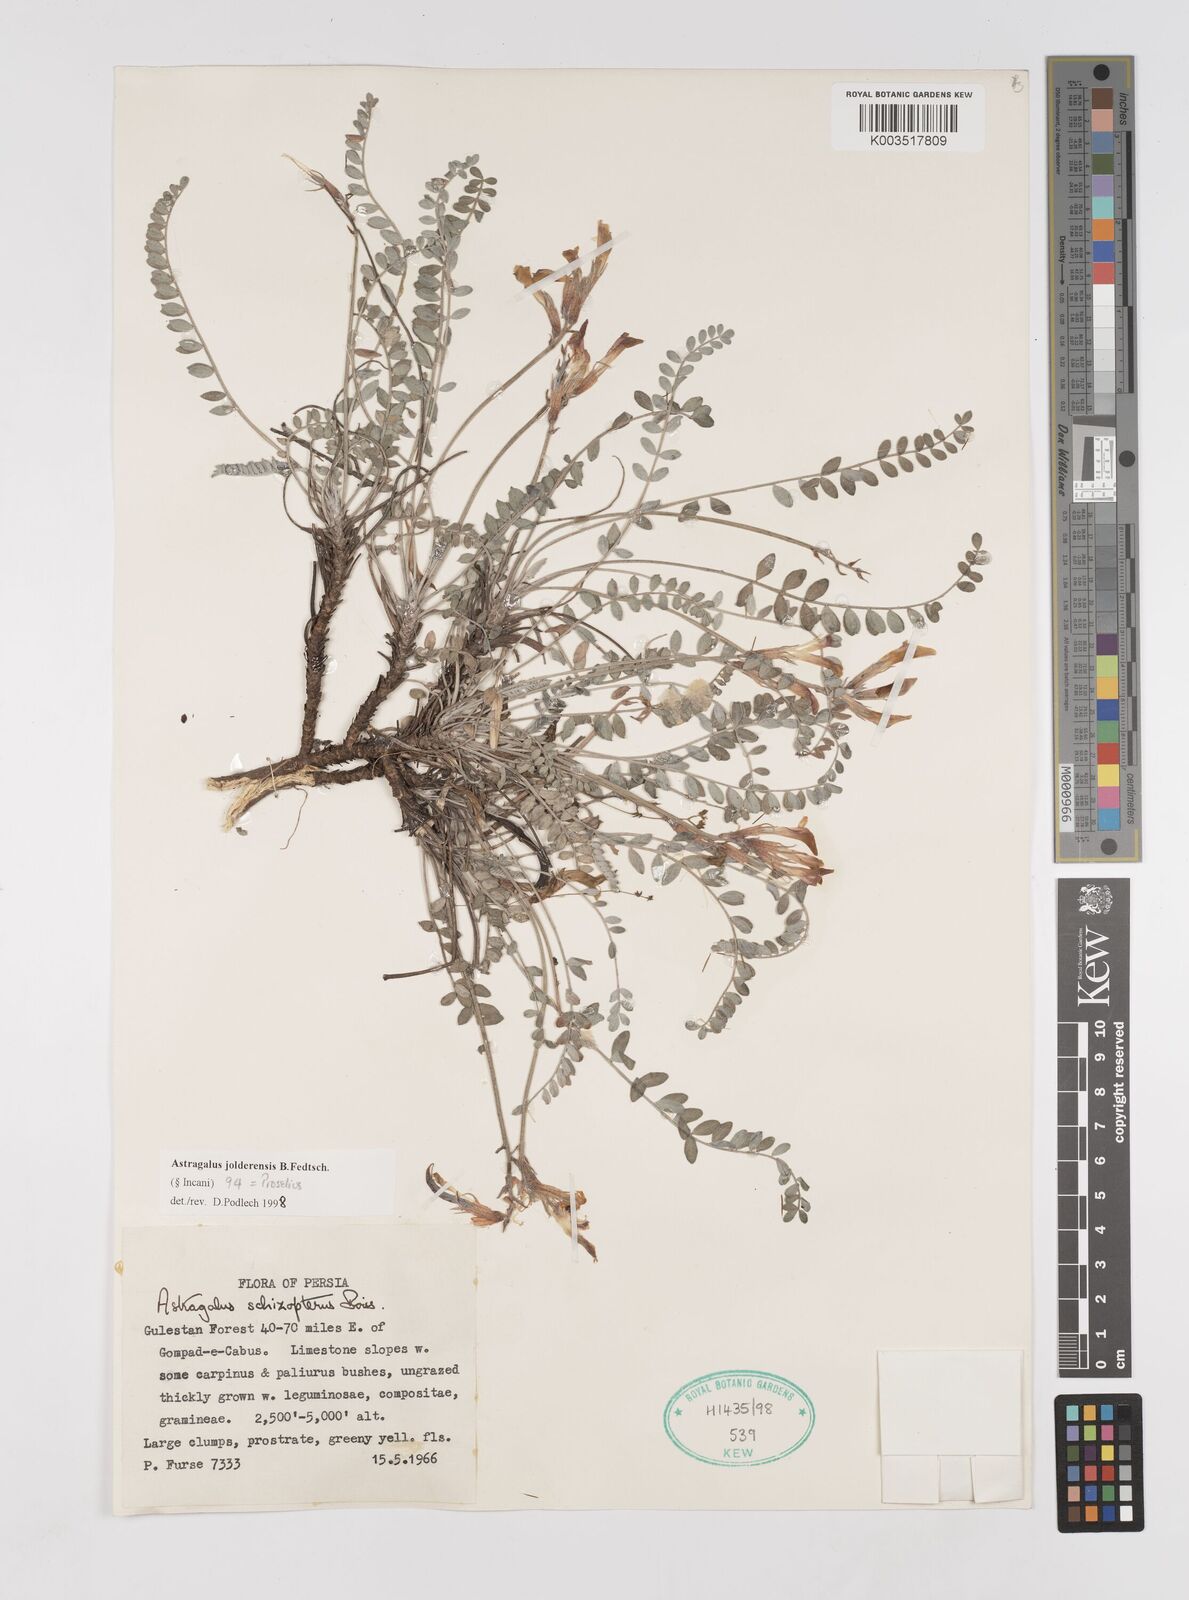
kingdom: Plantae
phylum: Tracheophyta
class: Magnoliopsida
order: Fabales
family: Fabaceae
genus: Astragalus
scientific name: Astragalus jolderensis
